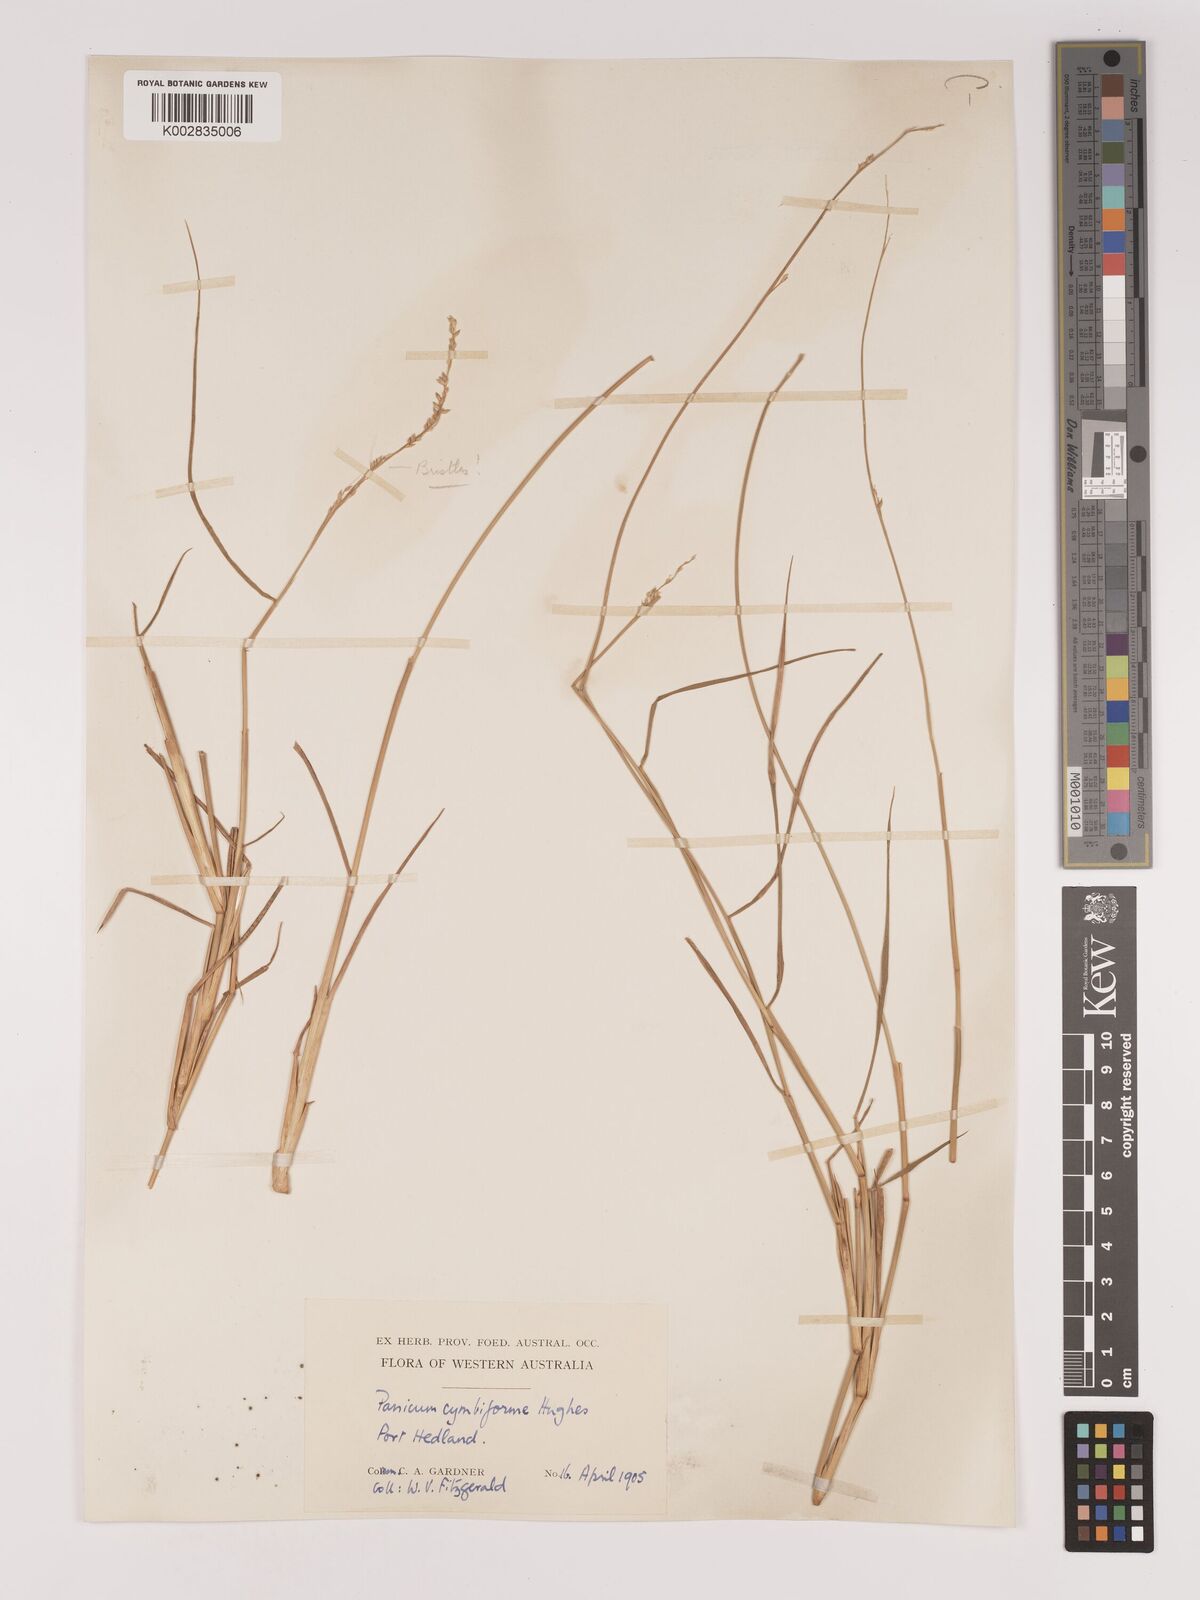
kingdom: Plantae
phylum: Tracheophyta
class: Liliopsida
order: Poales
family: Poaceae
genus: Setaria
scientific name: Setaria
